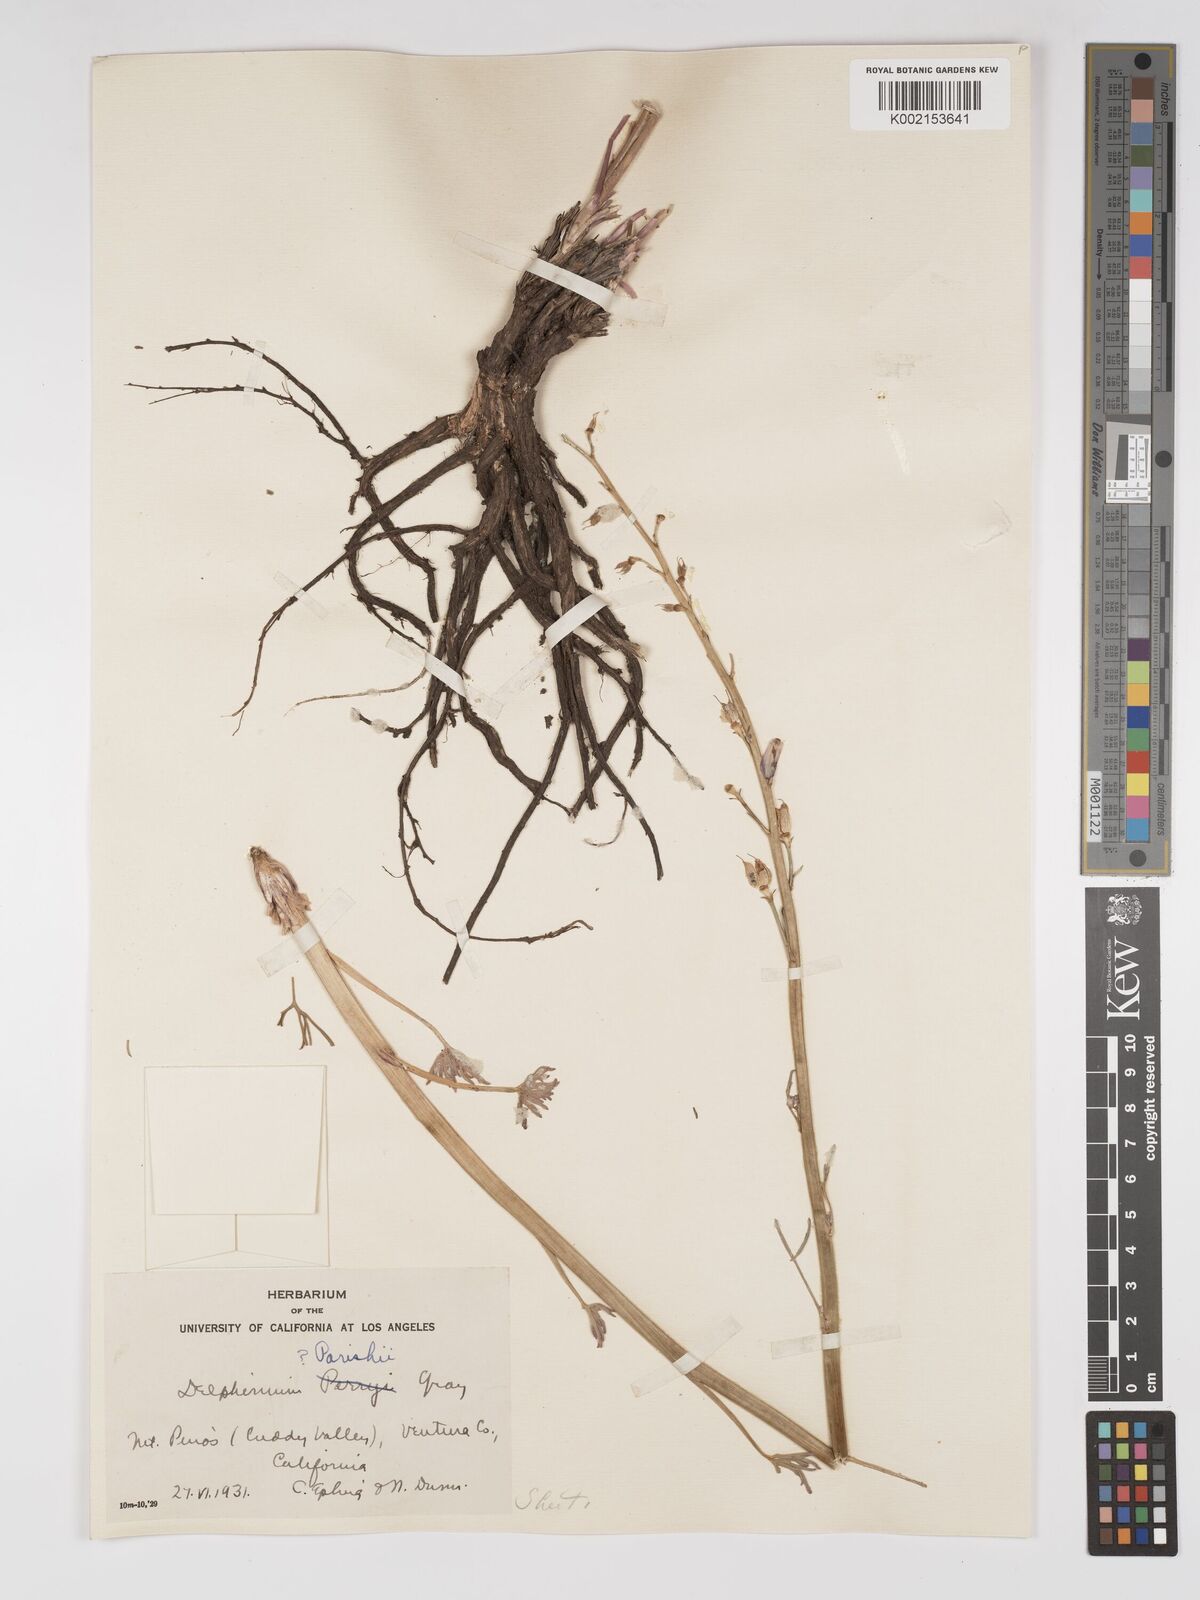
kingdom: Plantae
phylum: Tracheophyta
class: Magnoliopsida
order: Ranunculales
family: Ranunculaceae
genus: Delphinium
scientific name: Delphinium parishii
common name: Apache larkspur
